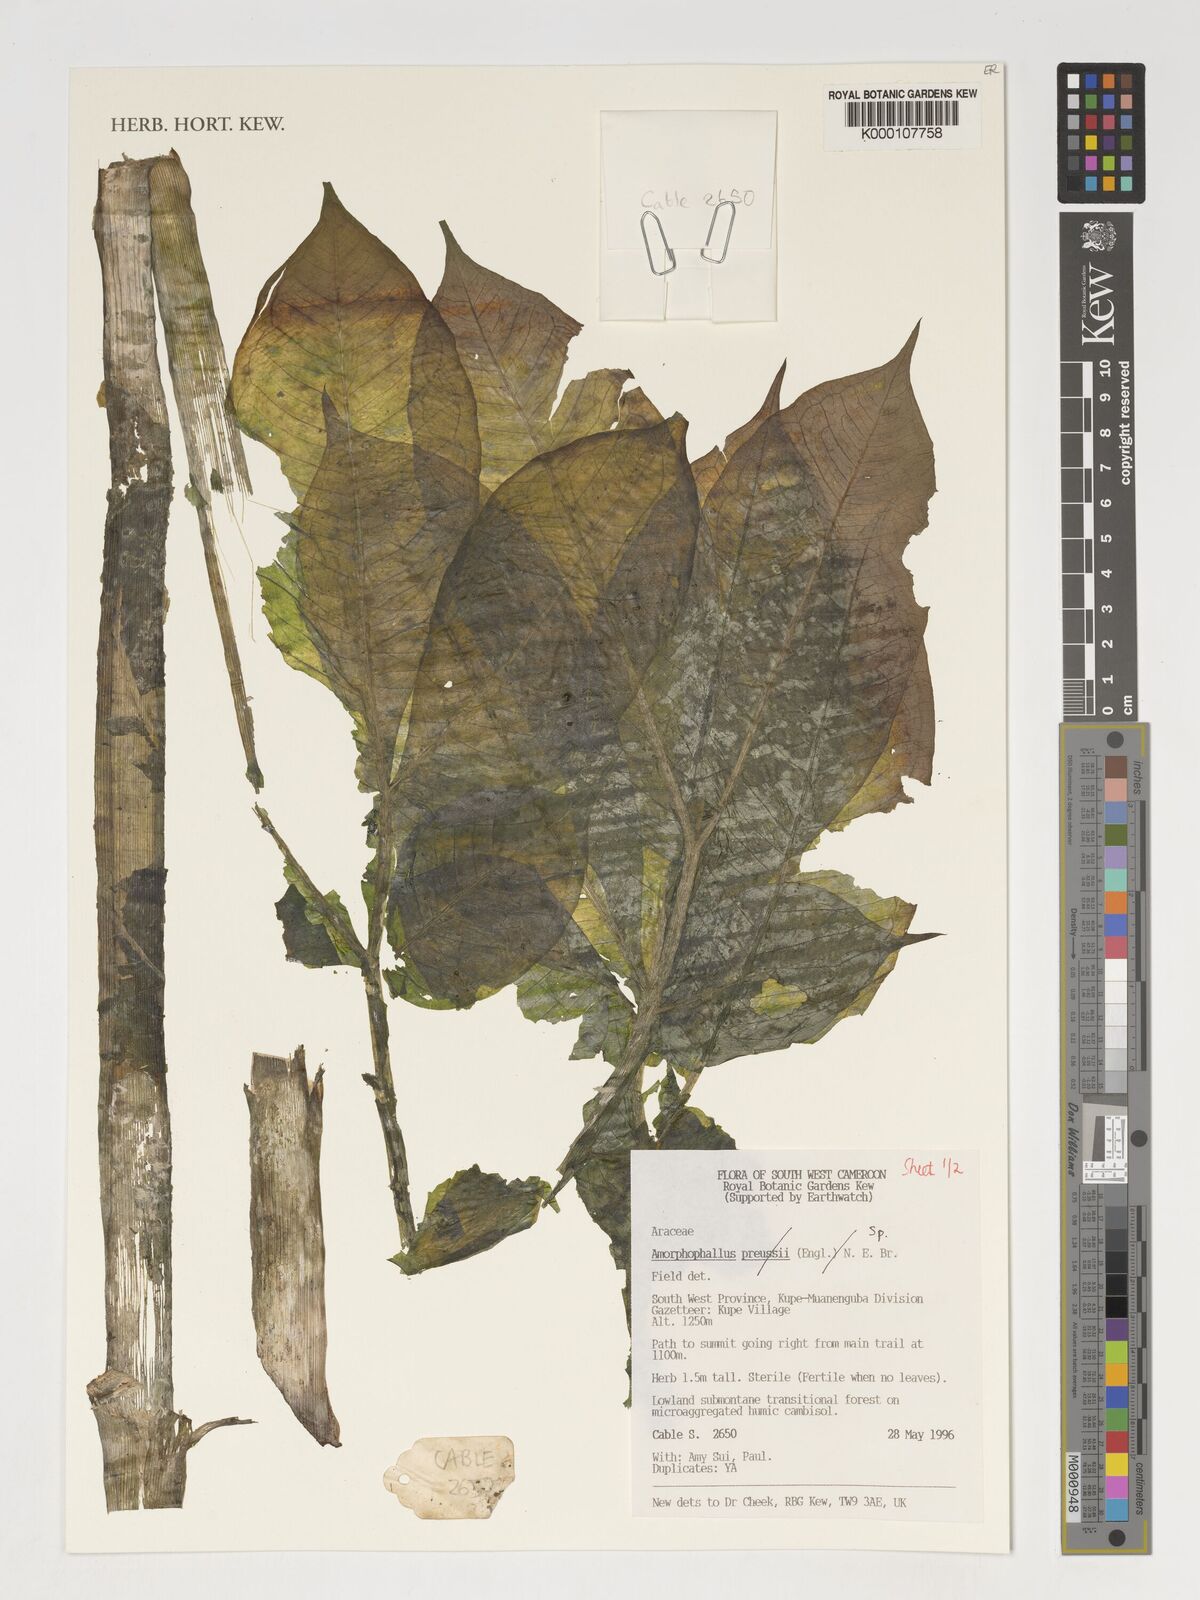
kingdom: Plantae
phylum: Tracheophyta
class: Liliopsida
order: Alismatales
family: Araceae
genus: Amorphophallus
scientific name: Amorphophallus
